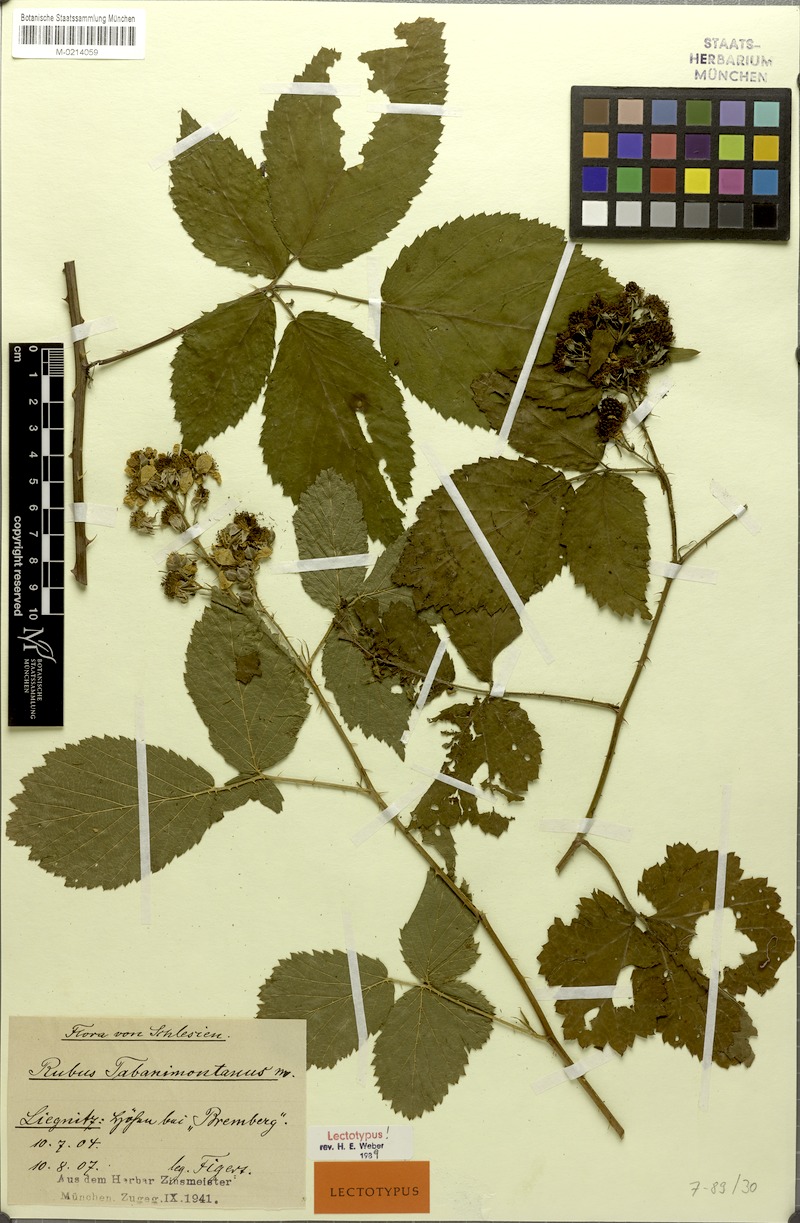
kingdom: Plantae
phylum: Tracheophyta
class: Magnoliopsida
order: Rosales
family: Rosaceae
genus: Rubus
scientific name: Rubus amygdalanthus
